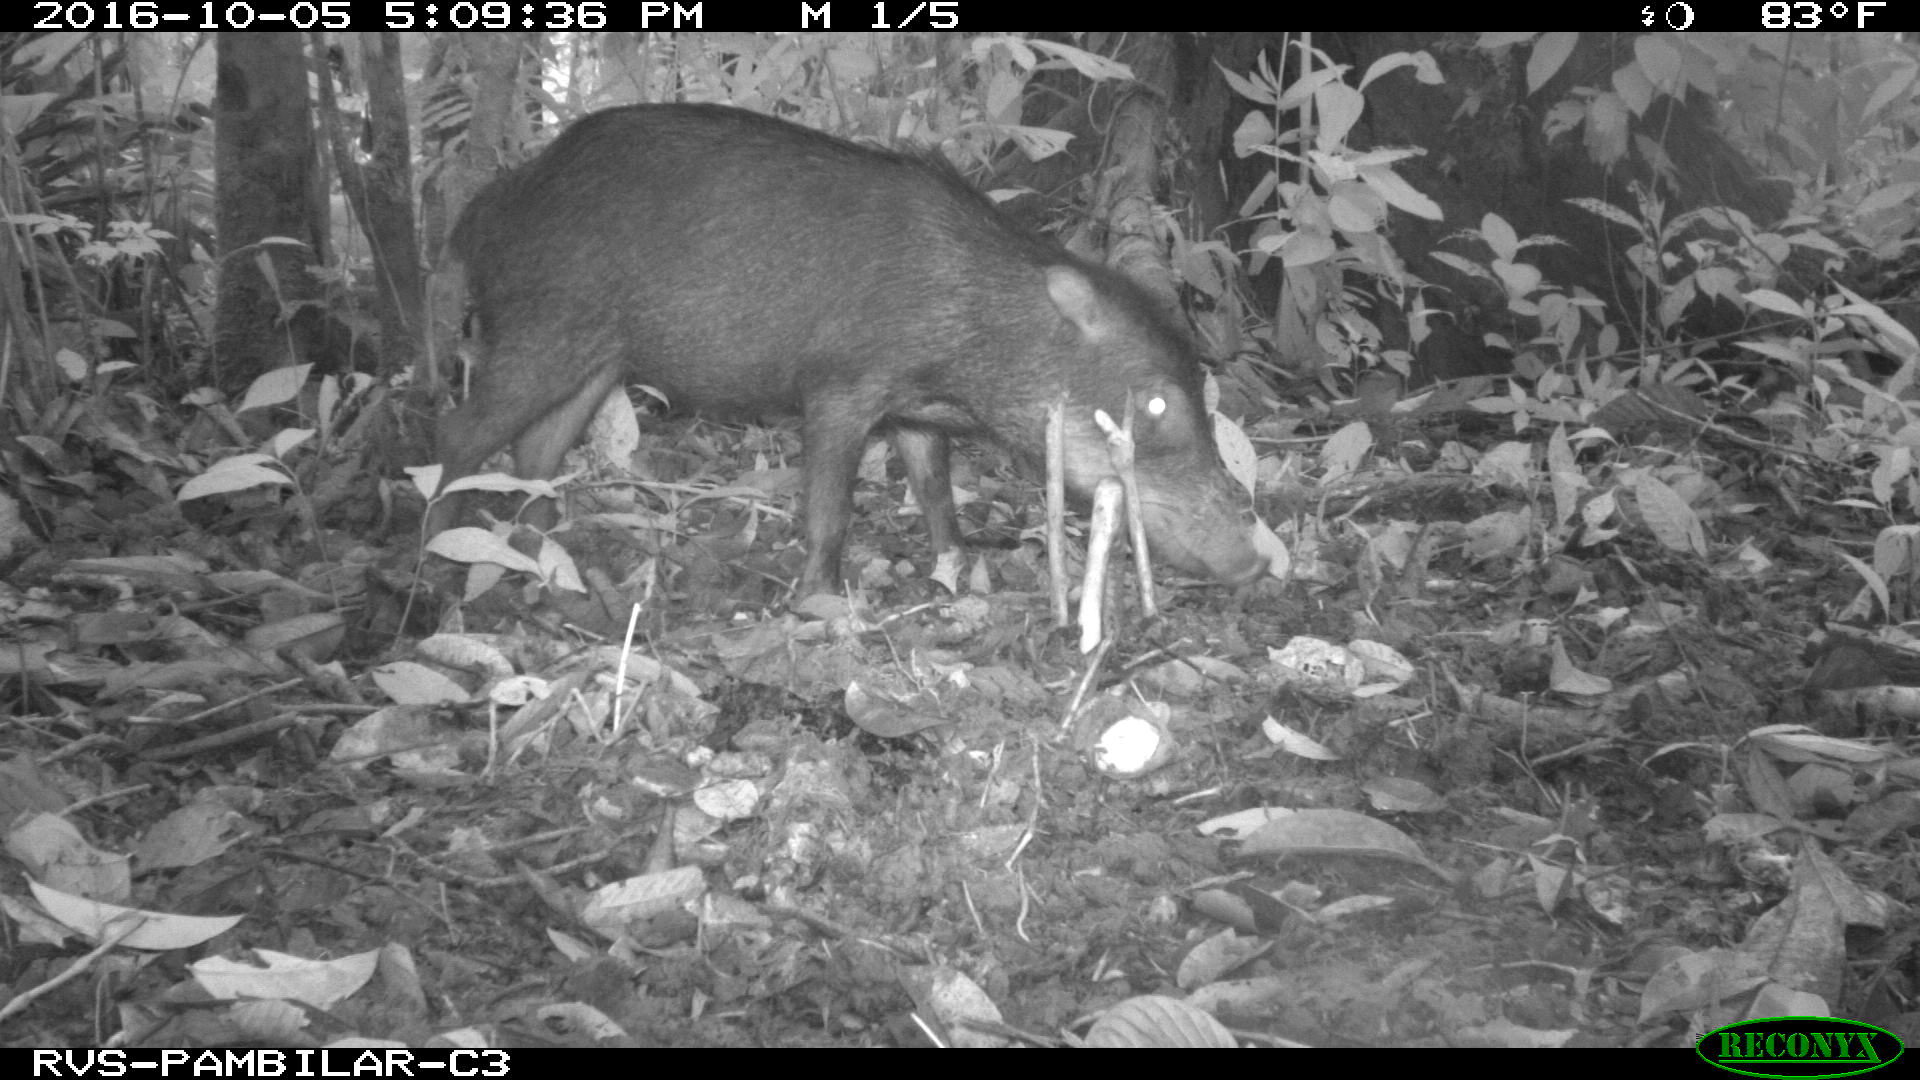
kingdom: Animalia
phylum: Chordata
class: Mammalia
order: Artiodactyla
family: Tayassuidae
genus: Tayassu
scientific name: Tayassu pecari
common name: White-lipped peccary
